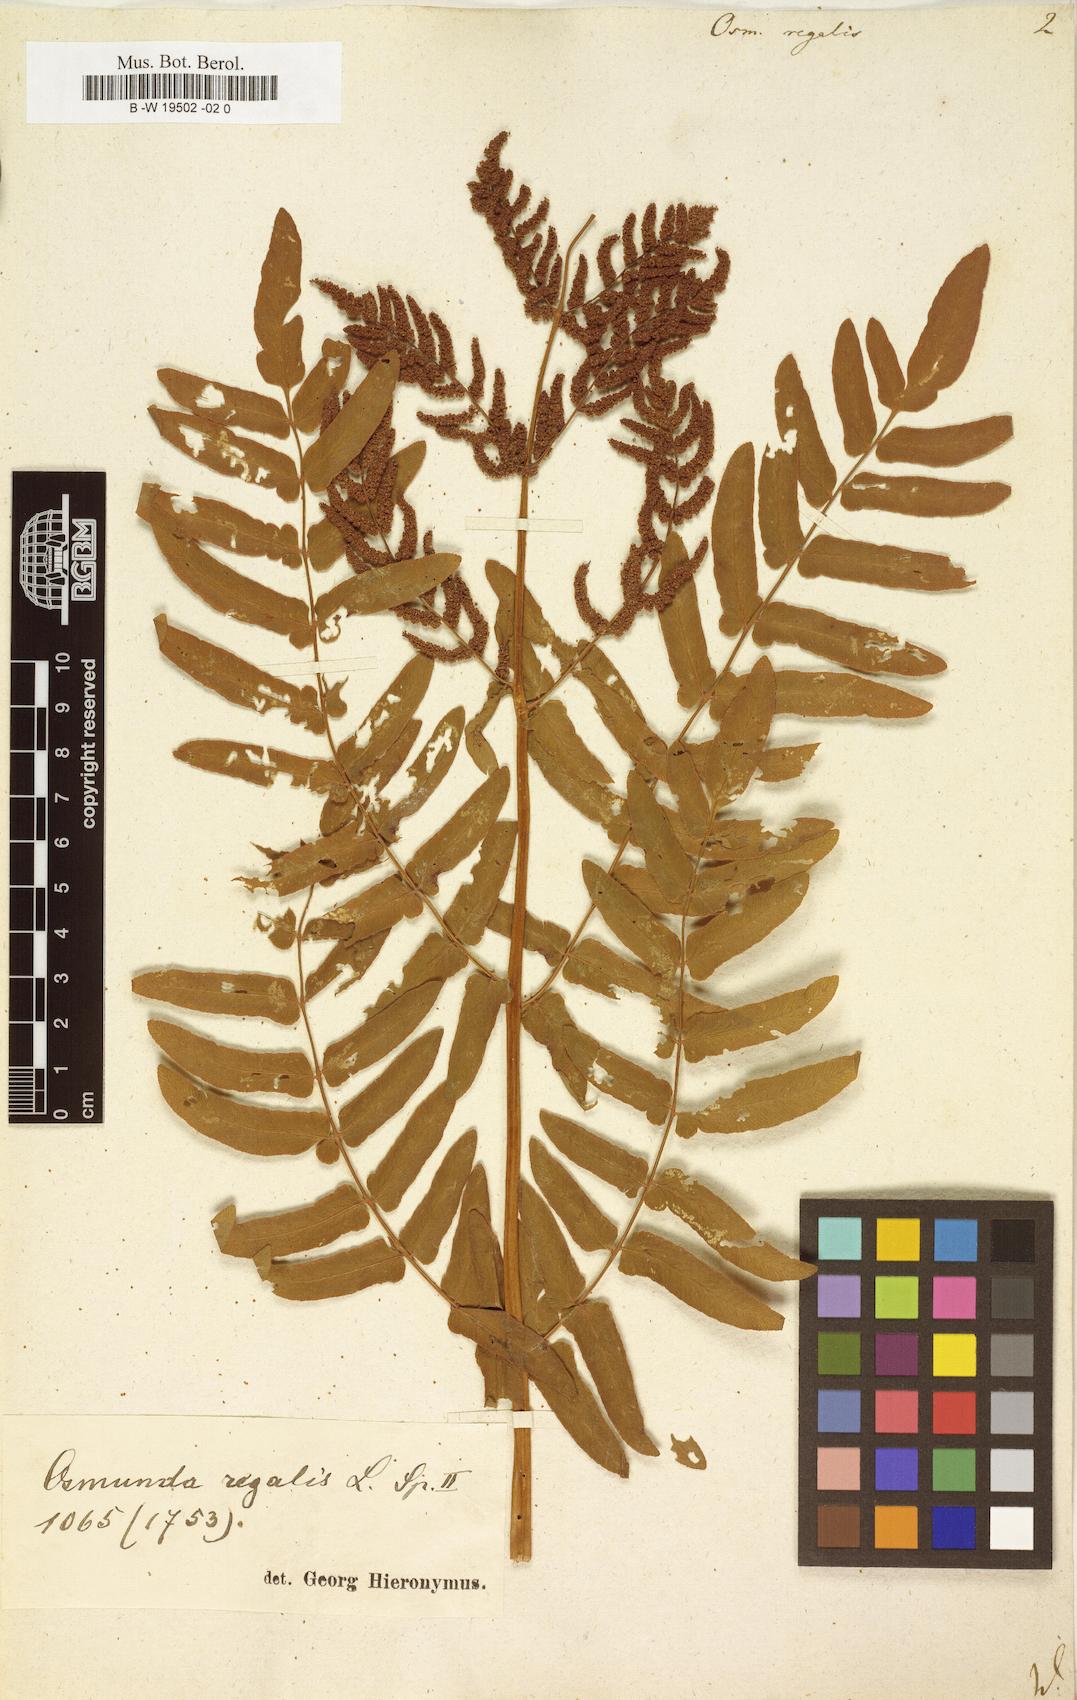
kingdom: Plantae
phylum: Tracheophyta
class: Polypodiopsida
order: Osmundales
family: Osmundaceae
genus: Osmunda
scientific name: Osmunda regalis
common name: Royal fern
